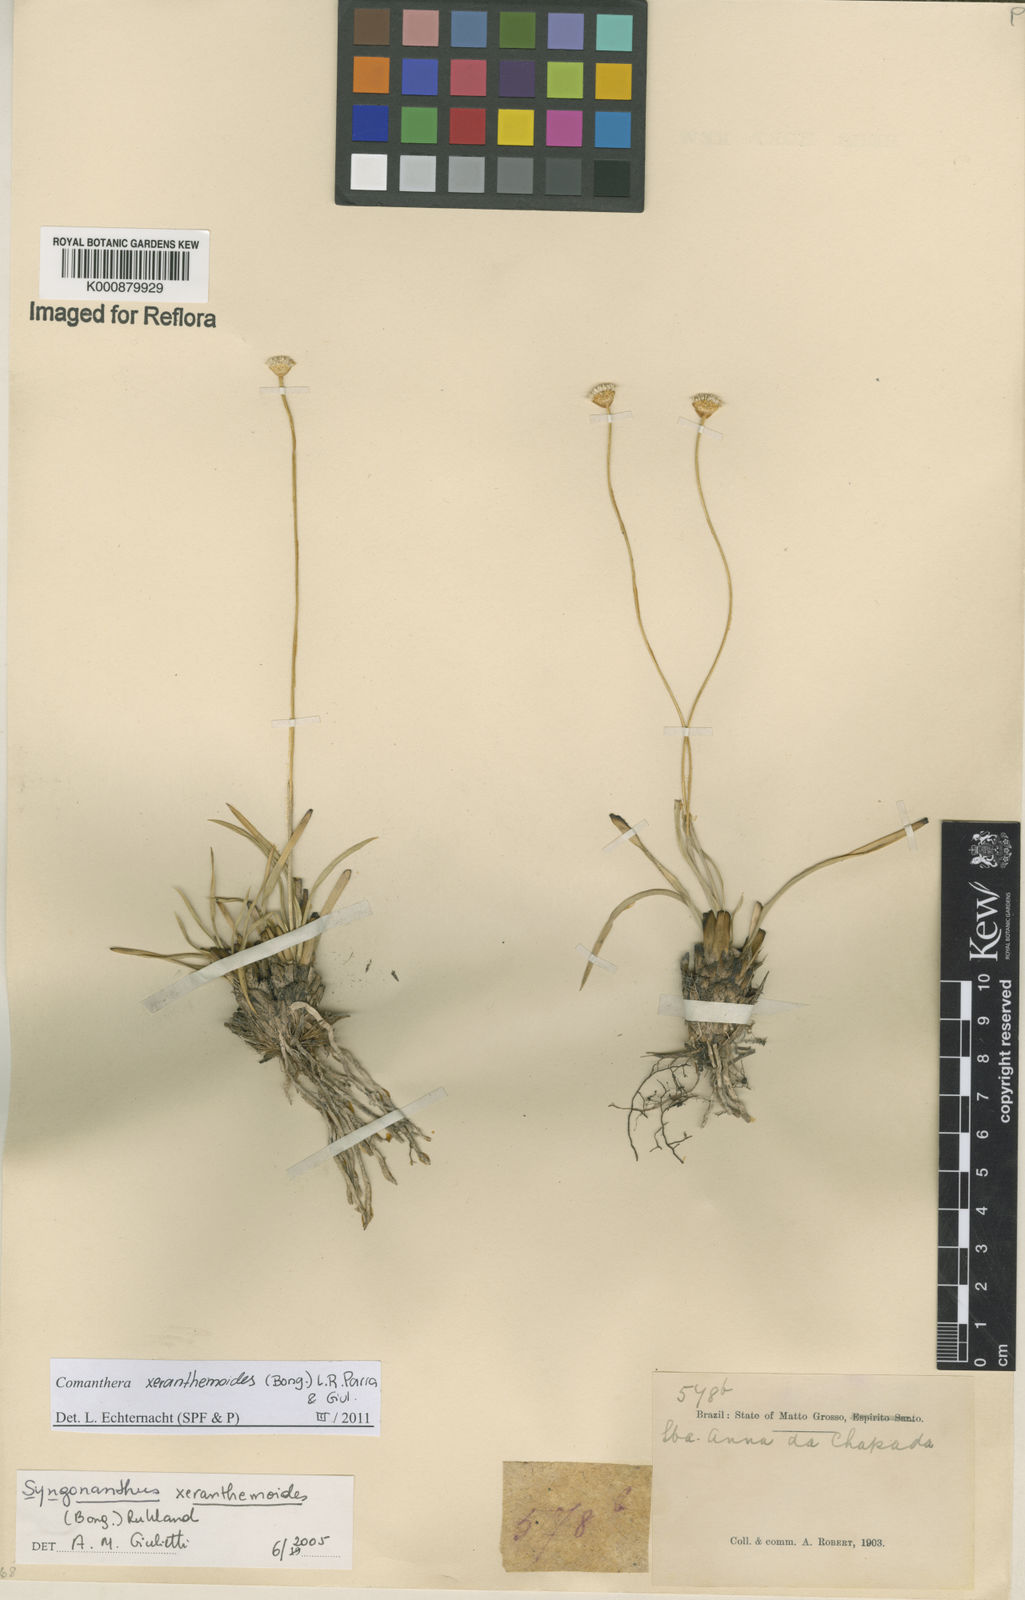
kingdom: Plantae
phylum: Tracheophyta
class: Liliopsida
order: Poales
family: Eriocaulaceae
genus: Comanthera
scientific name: Comanthera xeranthemoides
